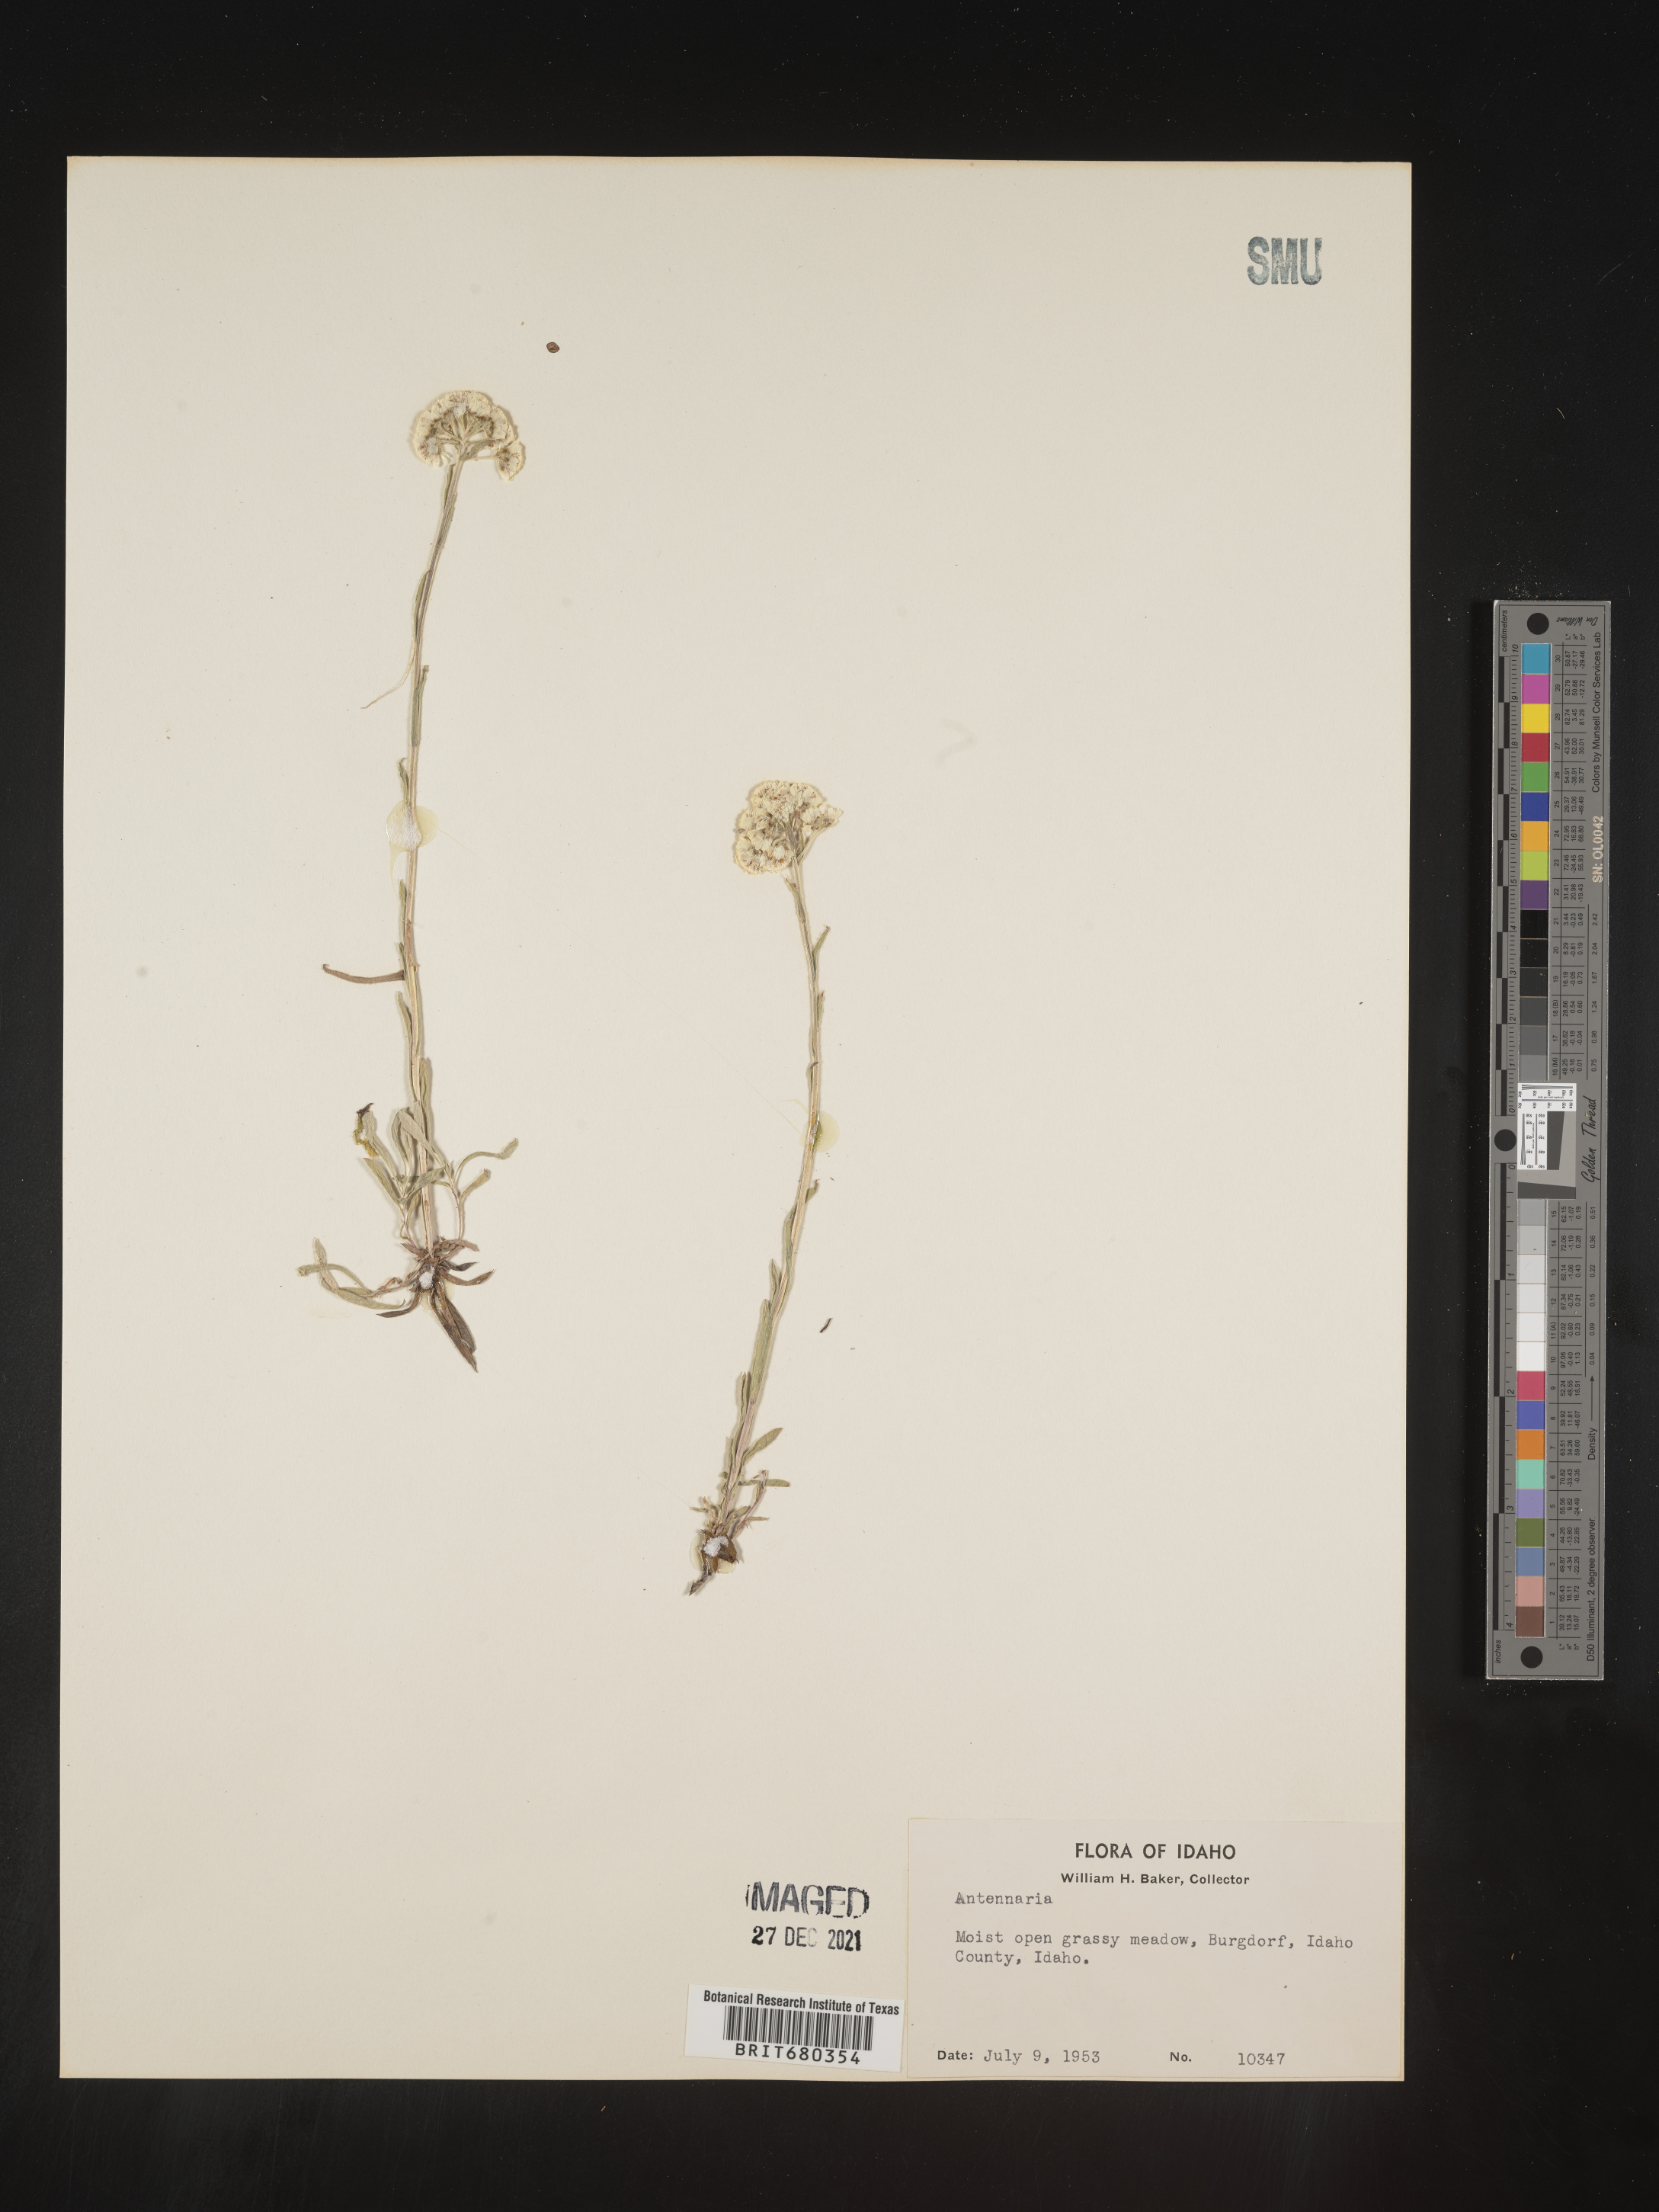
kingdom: Plantae
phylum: Tracheophyta
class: Magnoliopsida
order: Asterales
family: Asteraceae
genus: Antennaria
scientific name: Antennaria
